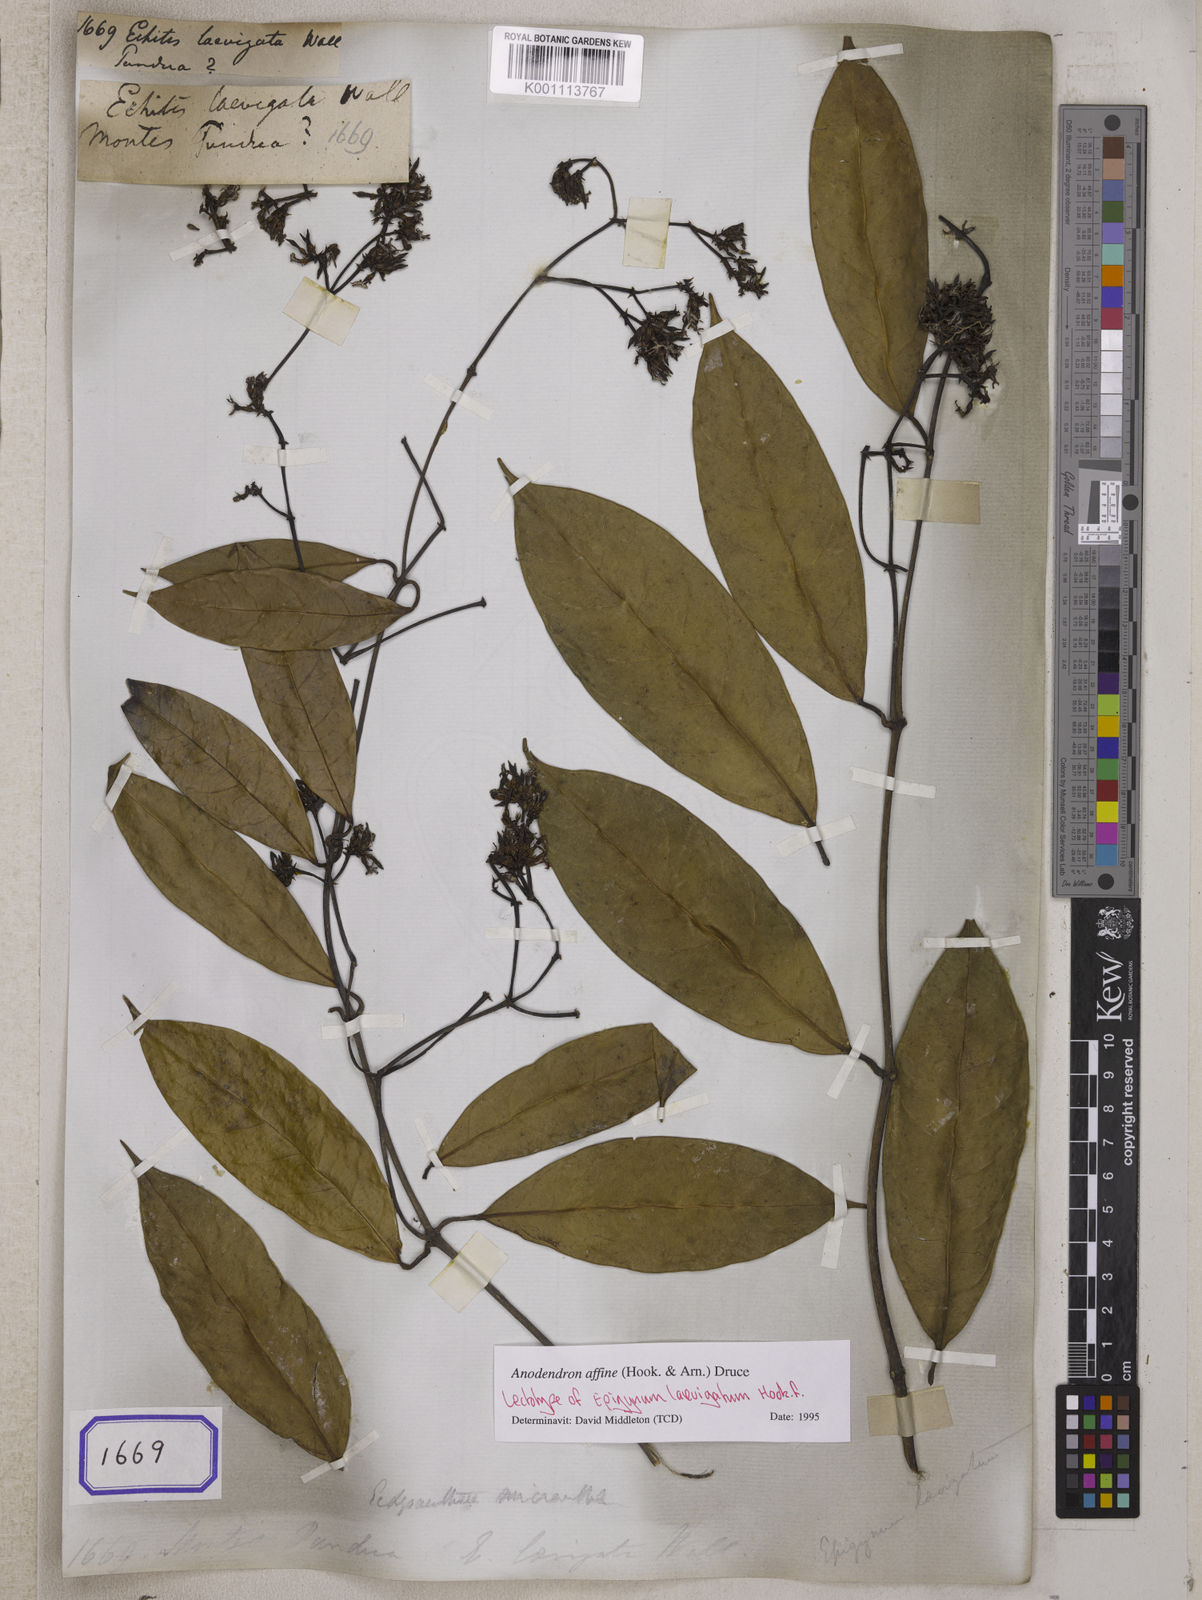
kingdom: Plantae
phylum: Tracheophyta
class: Magnoliopsida
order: Gentianales
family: Apocynaceae
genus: Echites
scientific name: Echites
